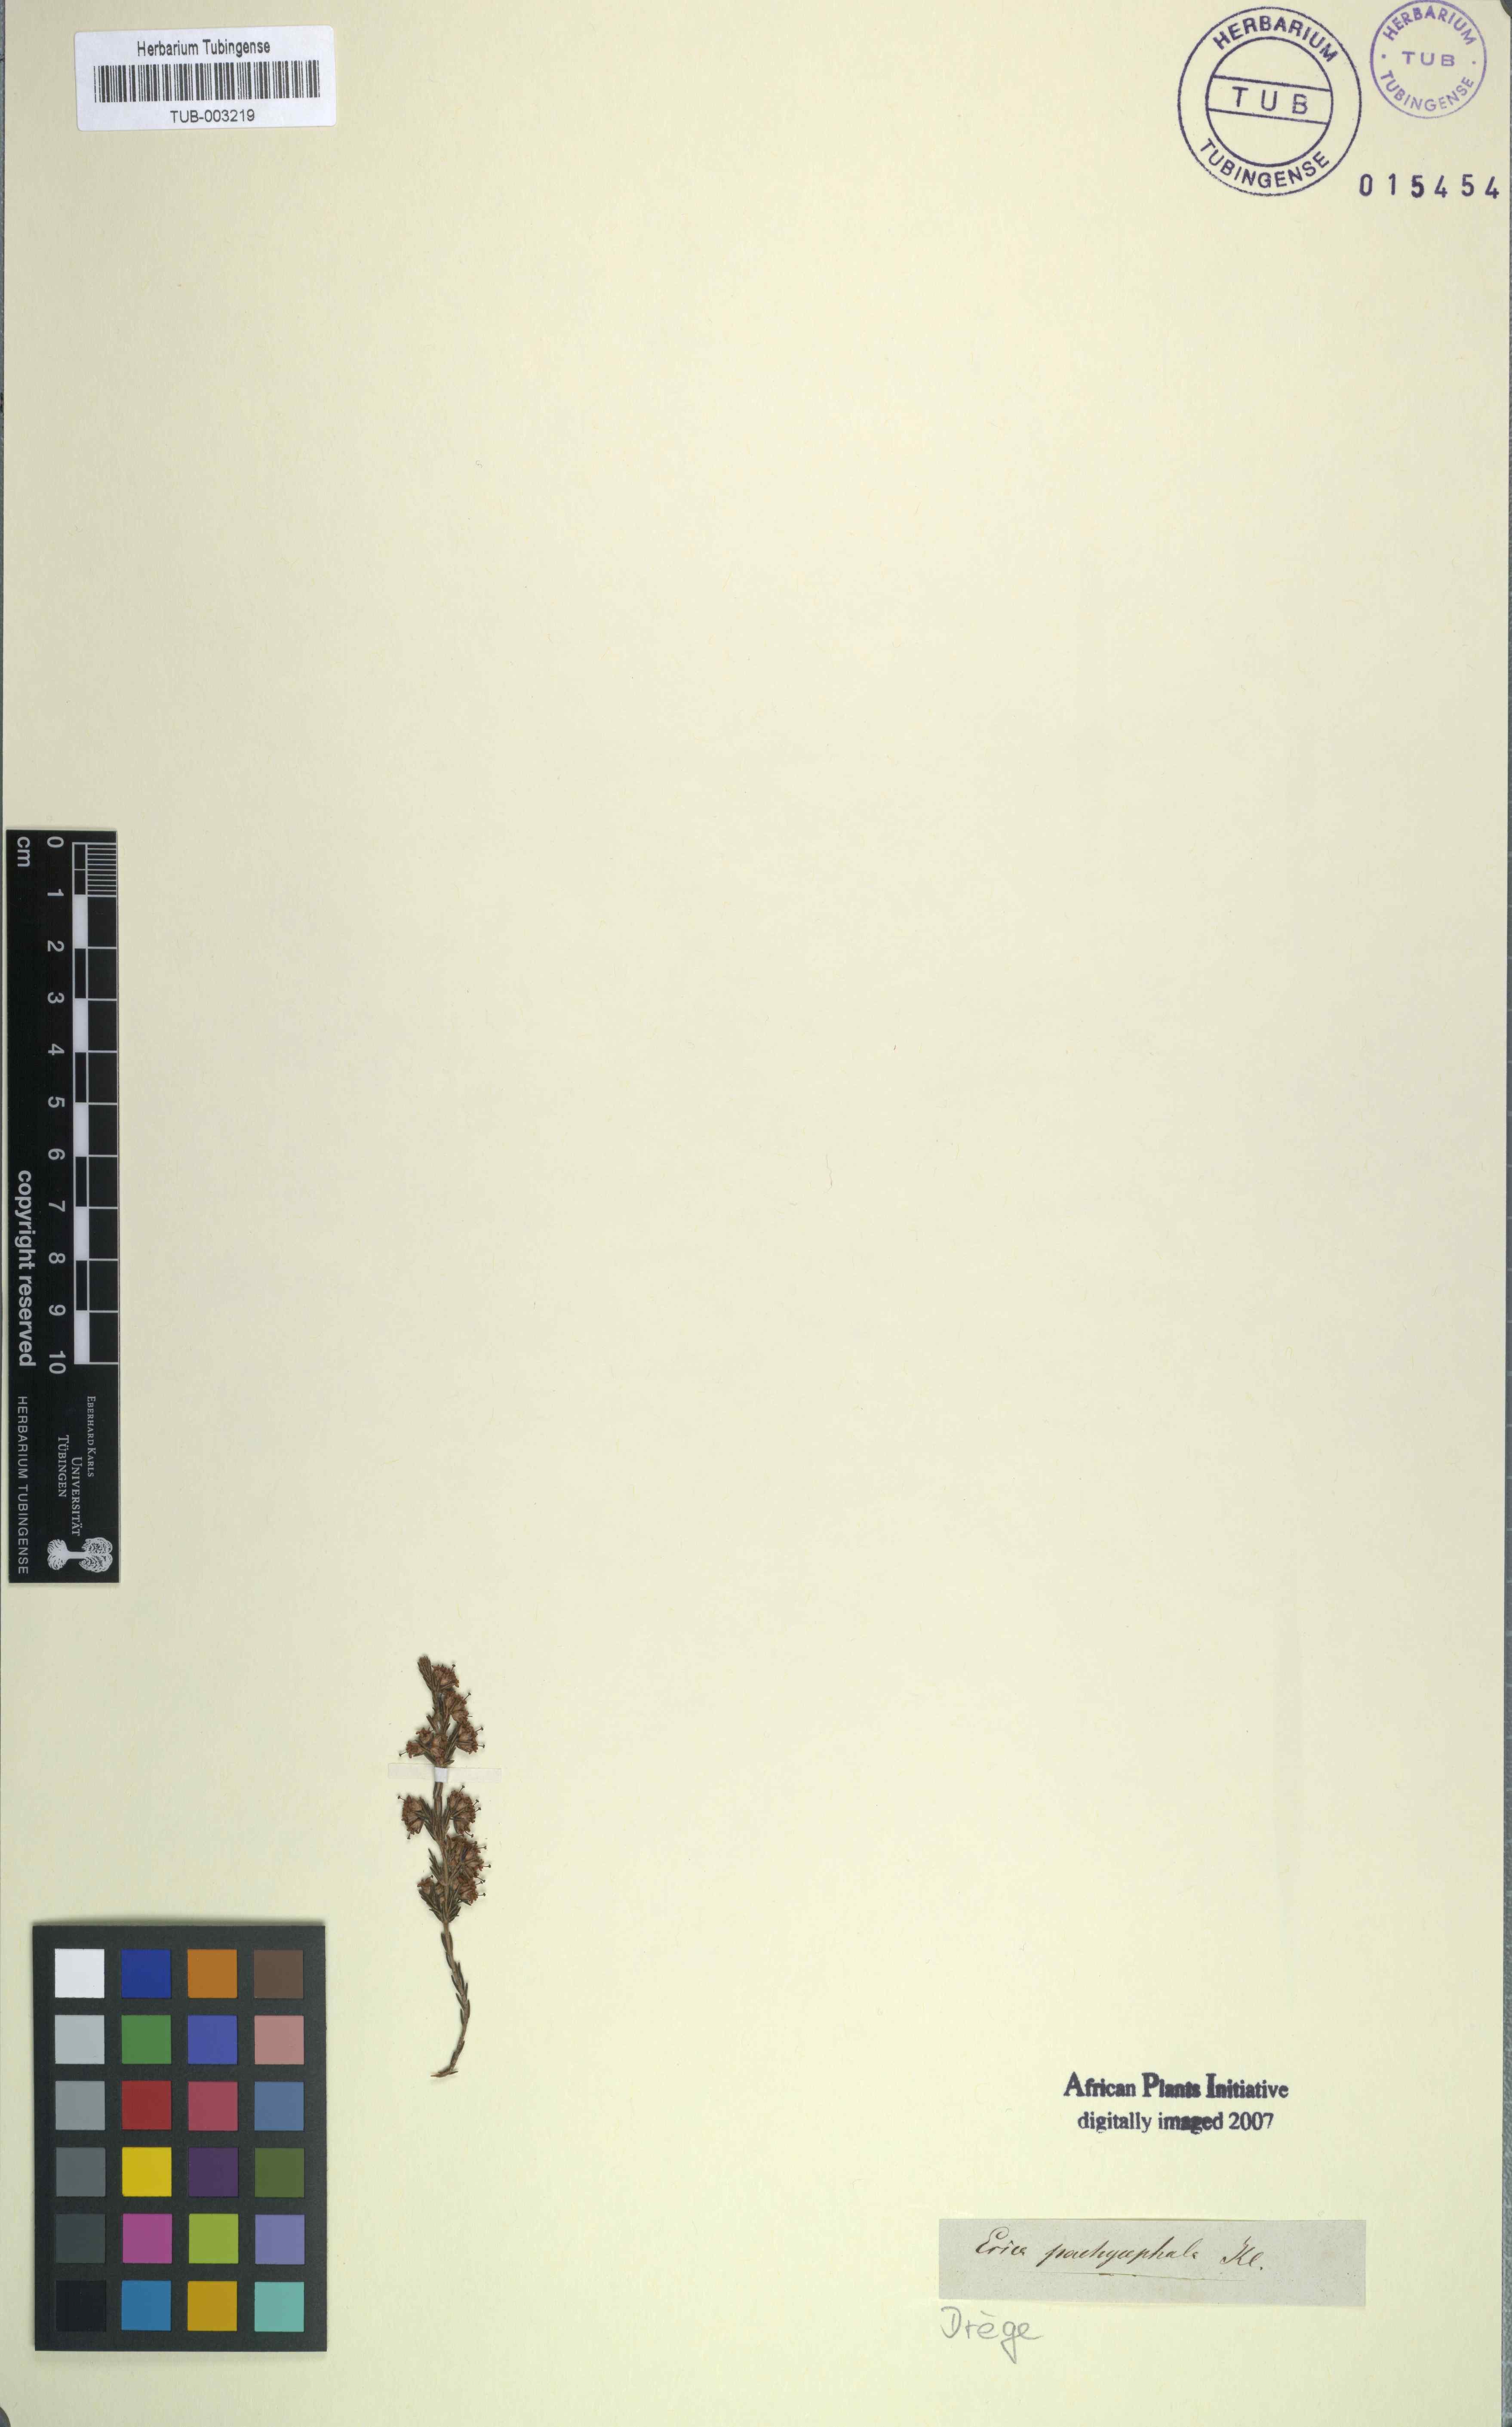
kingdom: Plantae
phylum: Tracheophyta
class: Magnoliopsida
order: Ericales
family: Ericaceae
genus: Erica
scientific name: Erica lasciva
